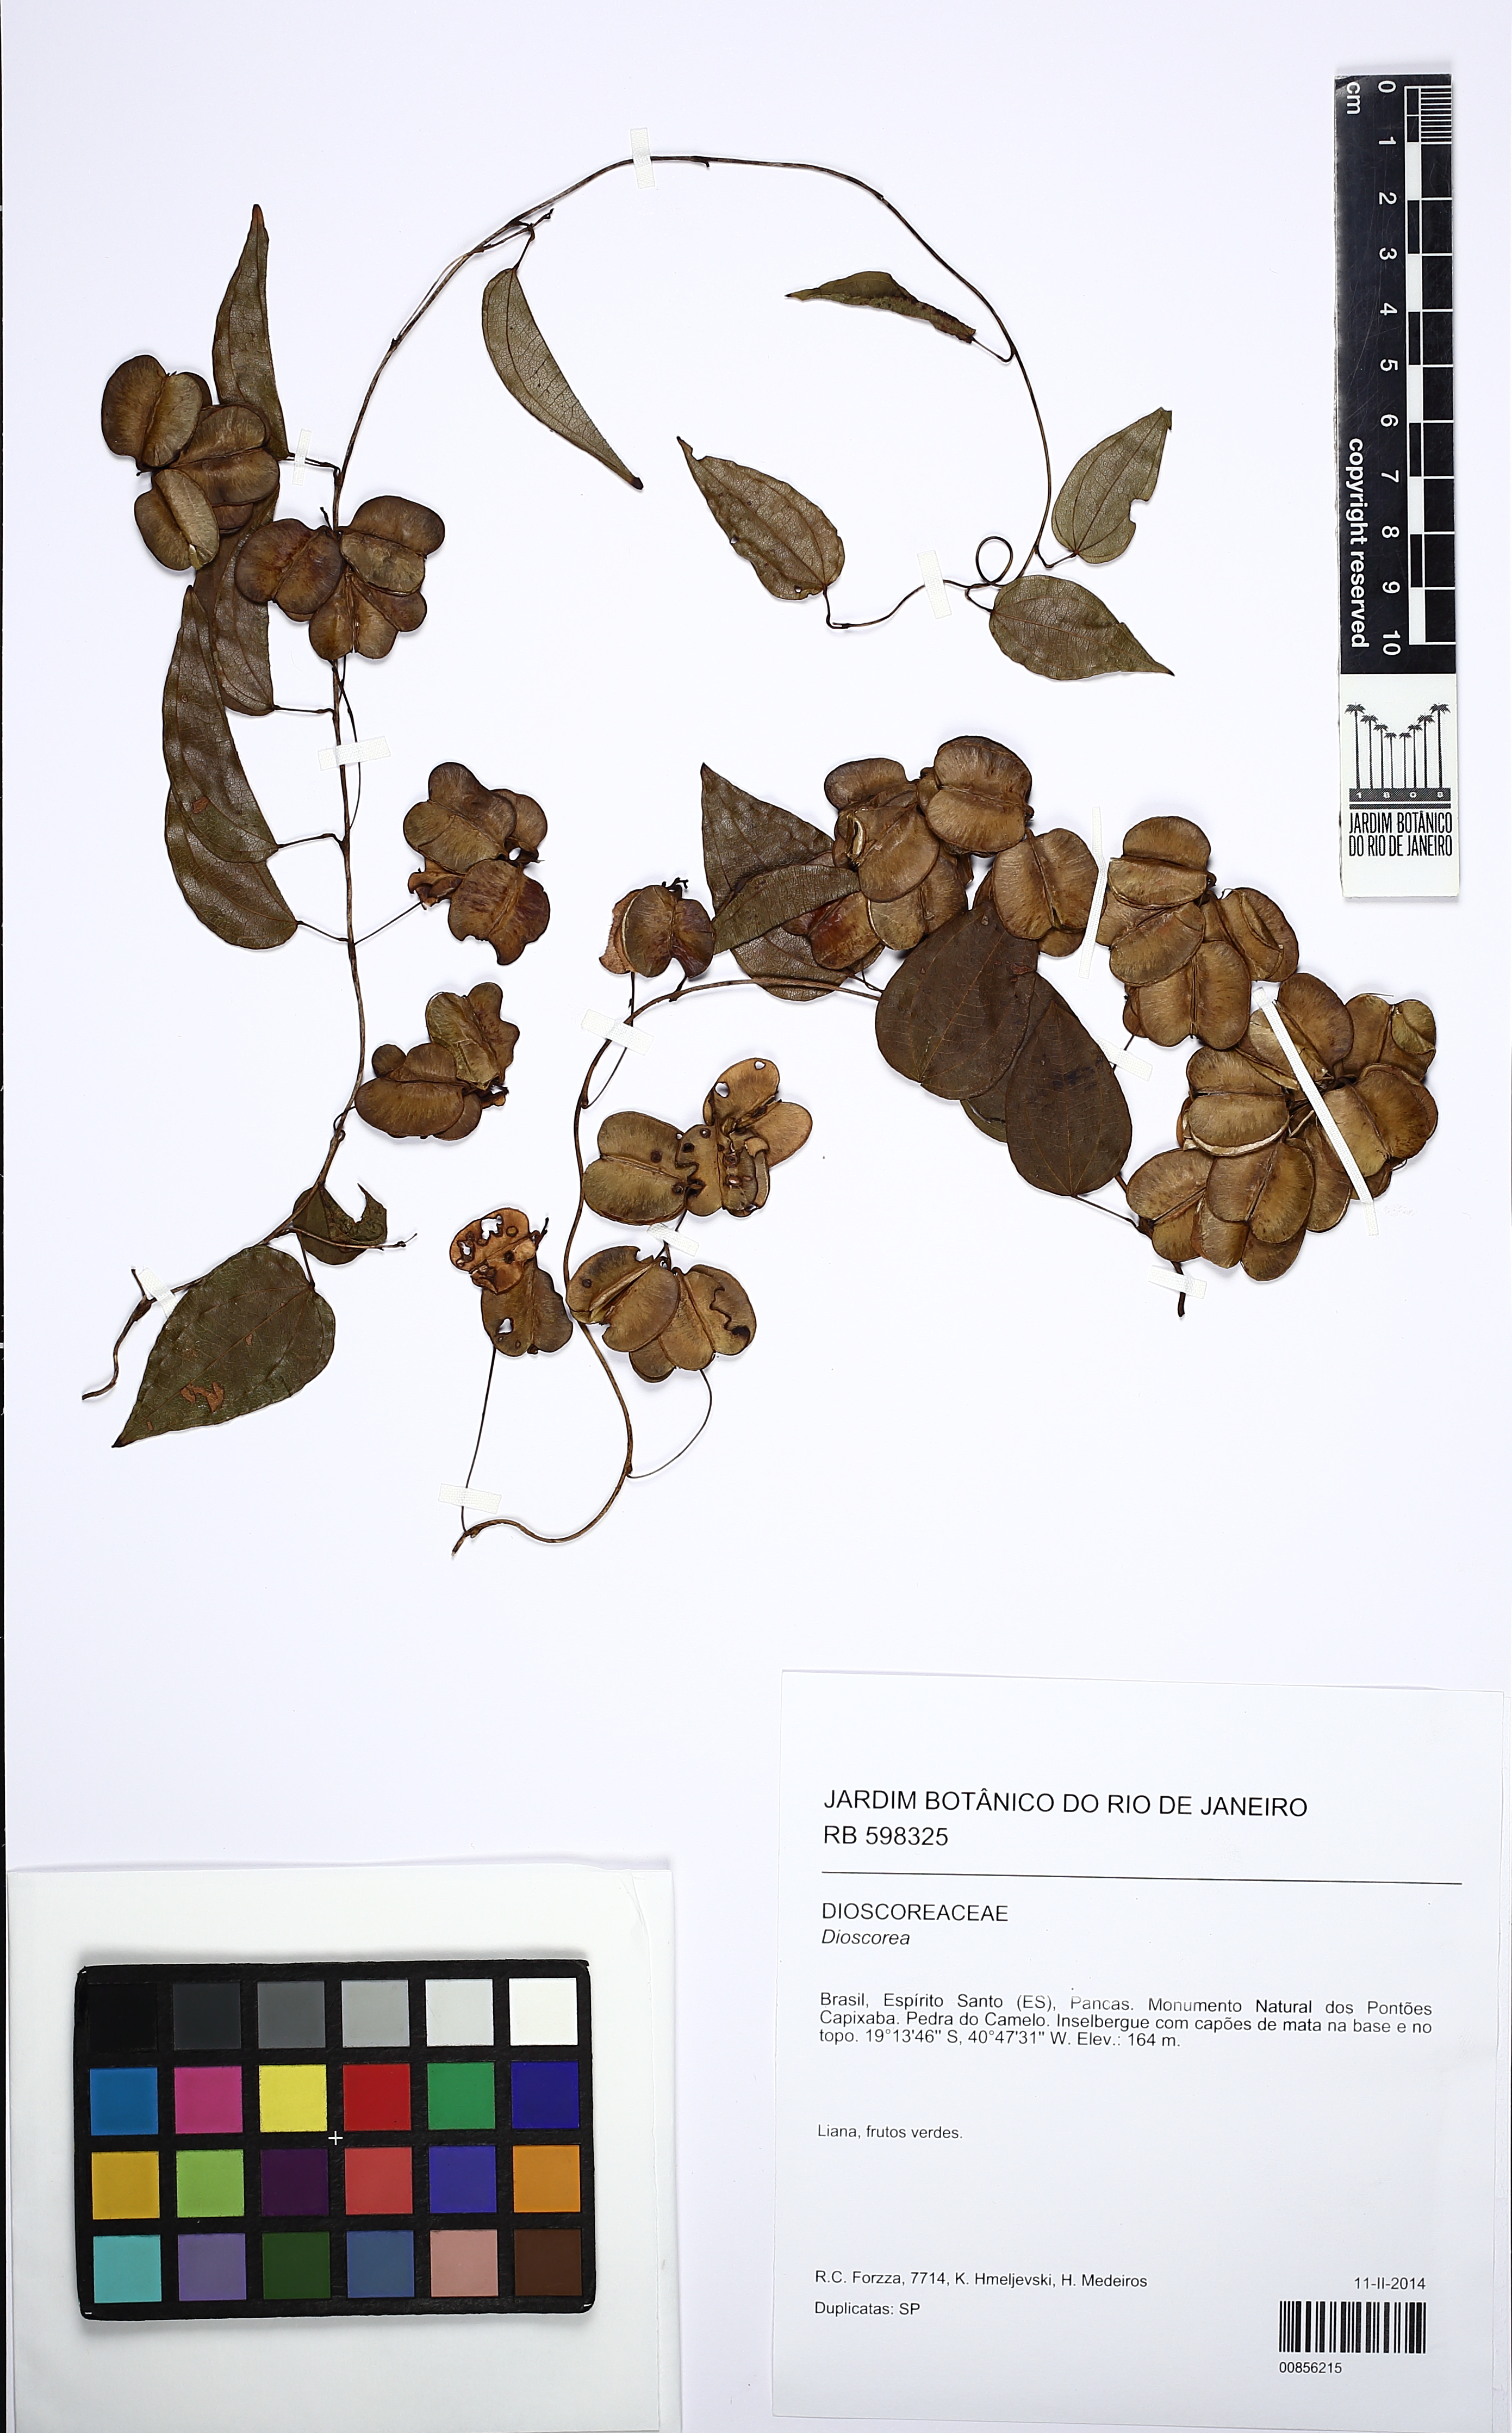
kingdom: Plantae
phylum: Tracheophyta
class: Liliopsida
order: Dioscoreales
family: Dioscoreaceae
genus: Dioscorea
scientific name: Dioscorea
